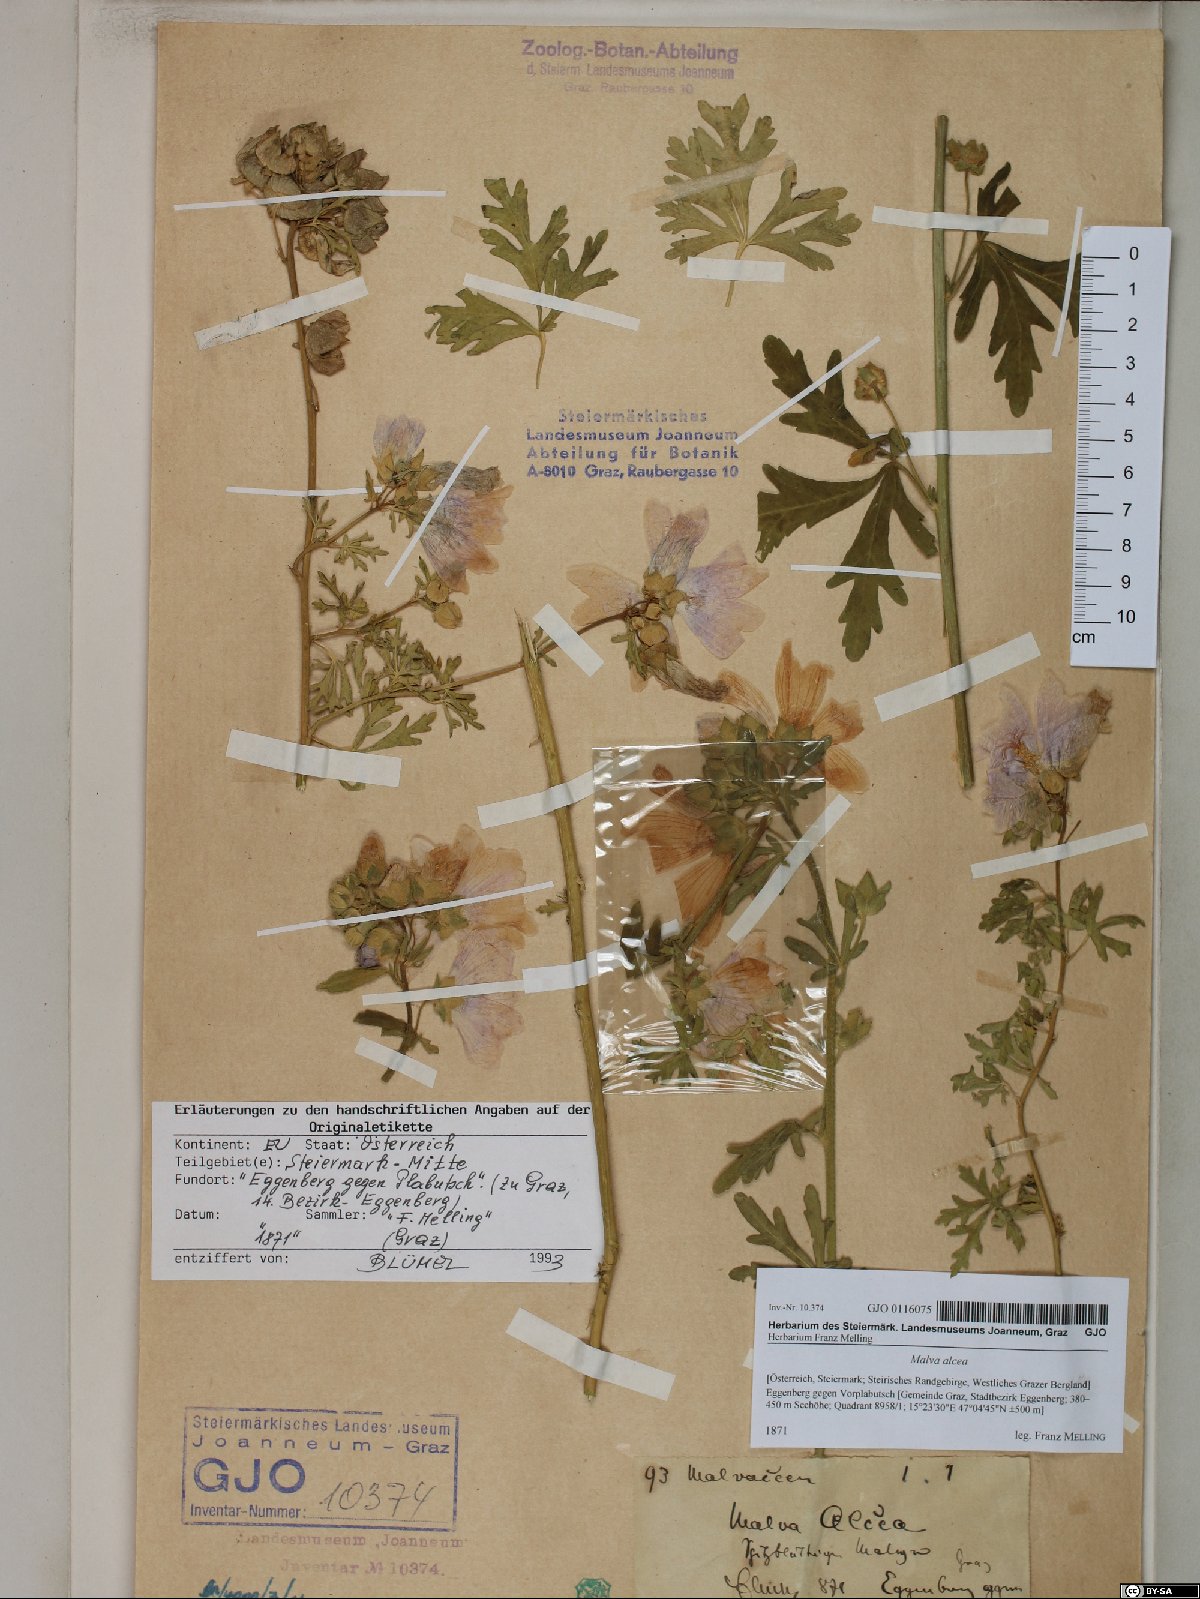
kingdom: Plantae
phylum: Tracheophyta
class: Magnoliopsida
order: Malvales
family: Malvaceae
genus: Malva
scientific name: Malva alcea
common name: Greater musk-mallow
